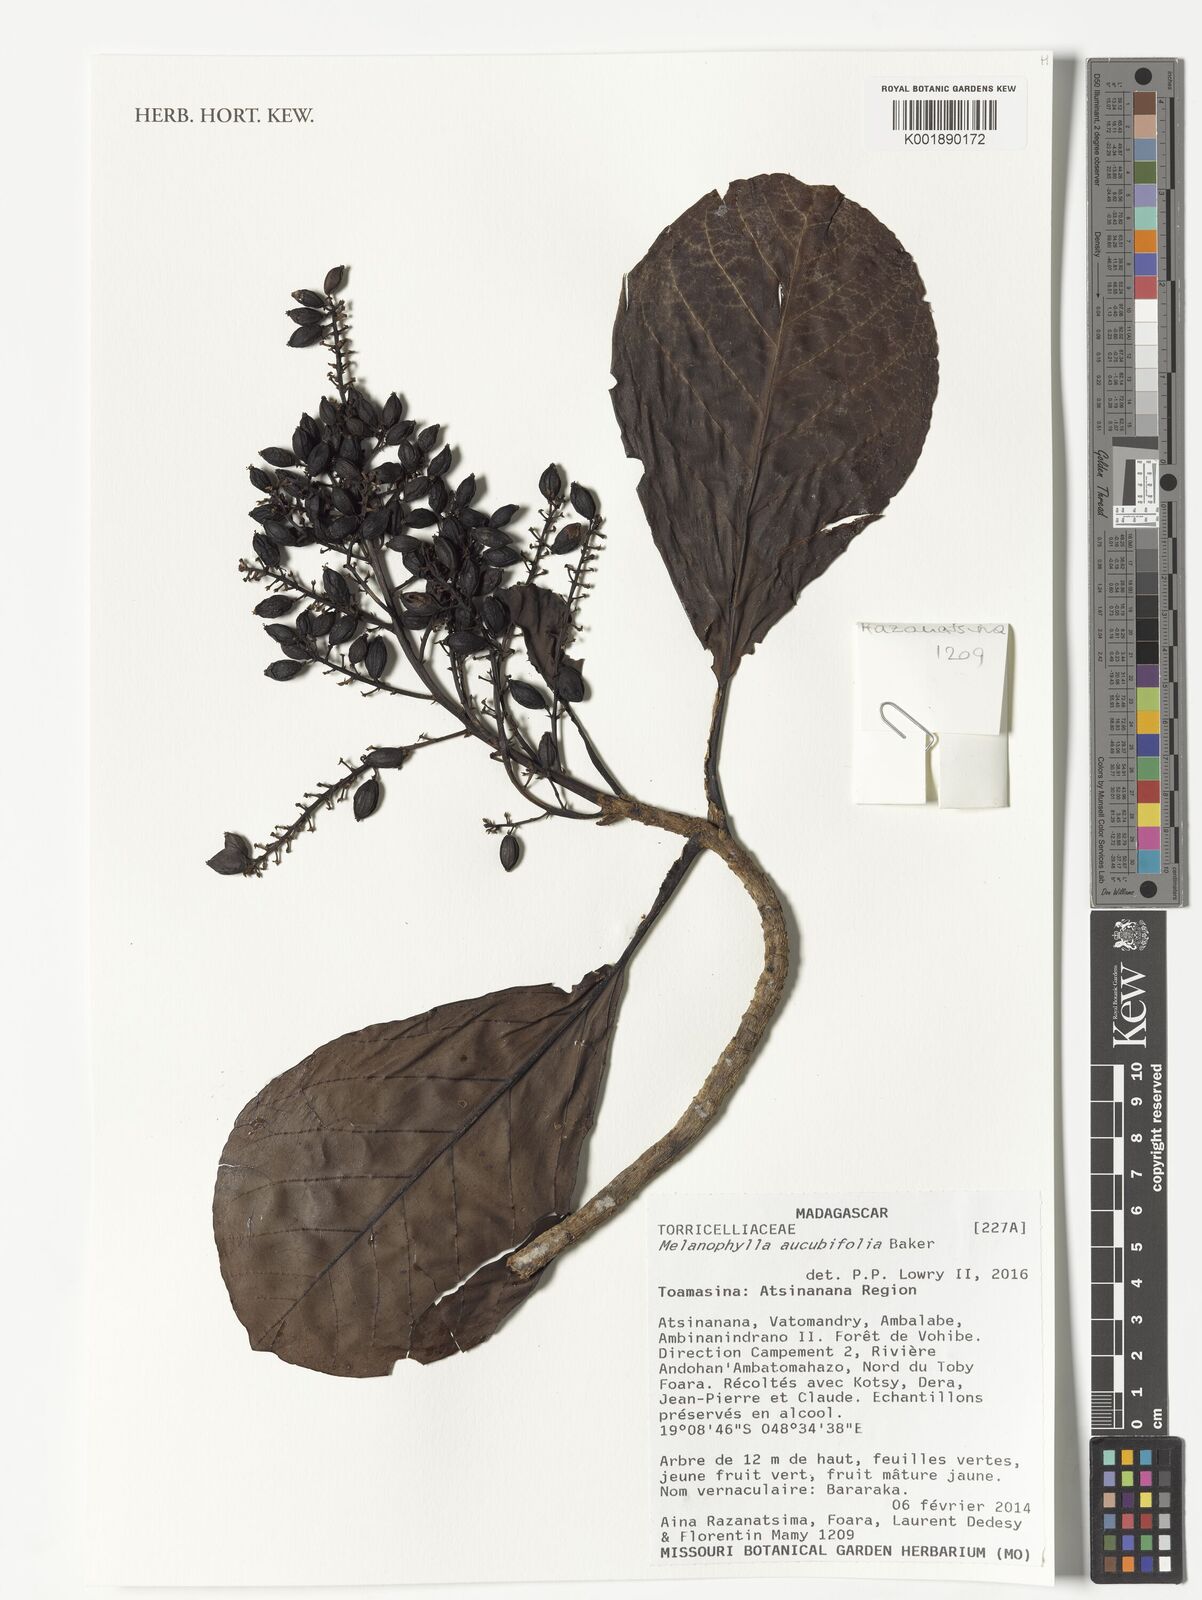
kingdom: Plantae
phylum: Tracheophyta
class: Magnoliopsida
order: Apiales
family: Torricelliaceae
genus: Melanophylla
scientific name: Melanophylla aucubifolia
